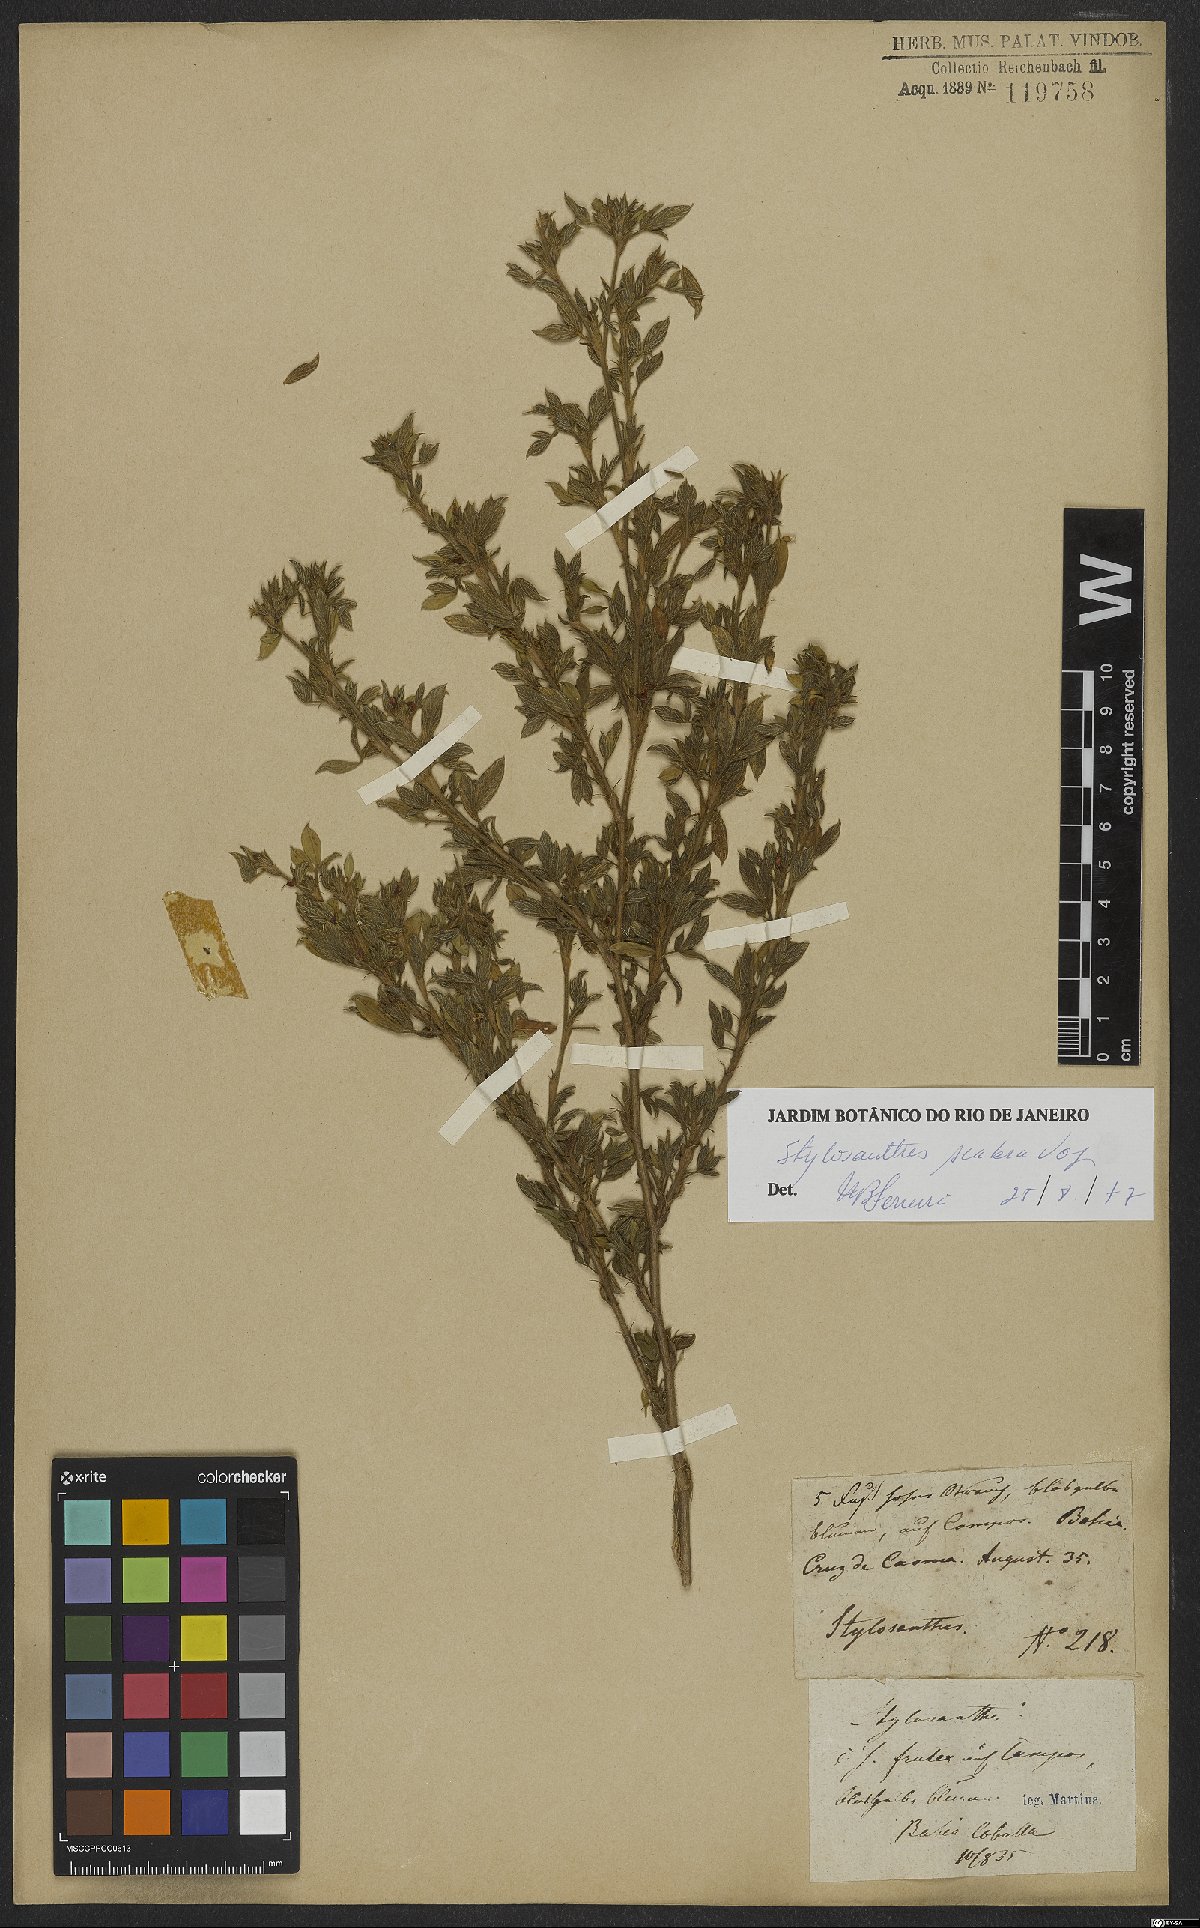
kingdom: Plantae
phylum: Tracheophyta
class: Magnoliopsida
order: Fabales
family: Fabaceae
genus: Stylosanthes
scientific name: Stylosanthes scabra
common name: Pencilflower
